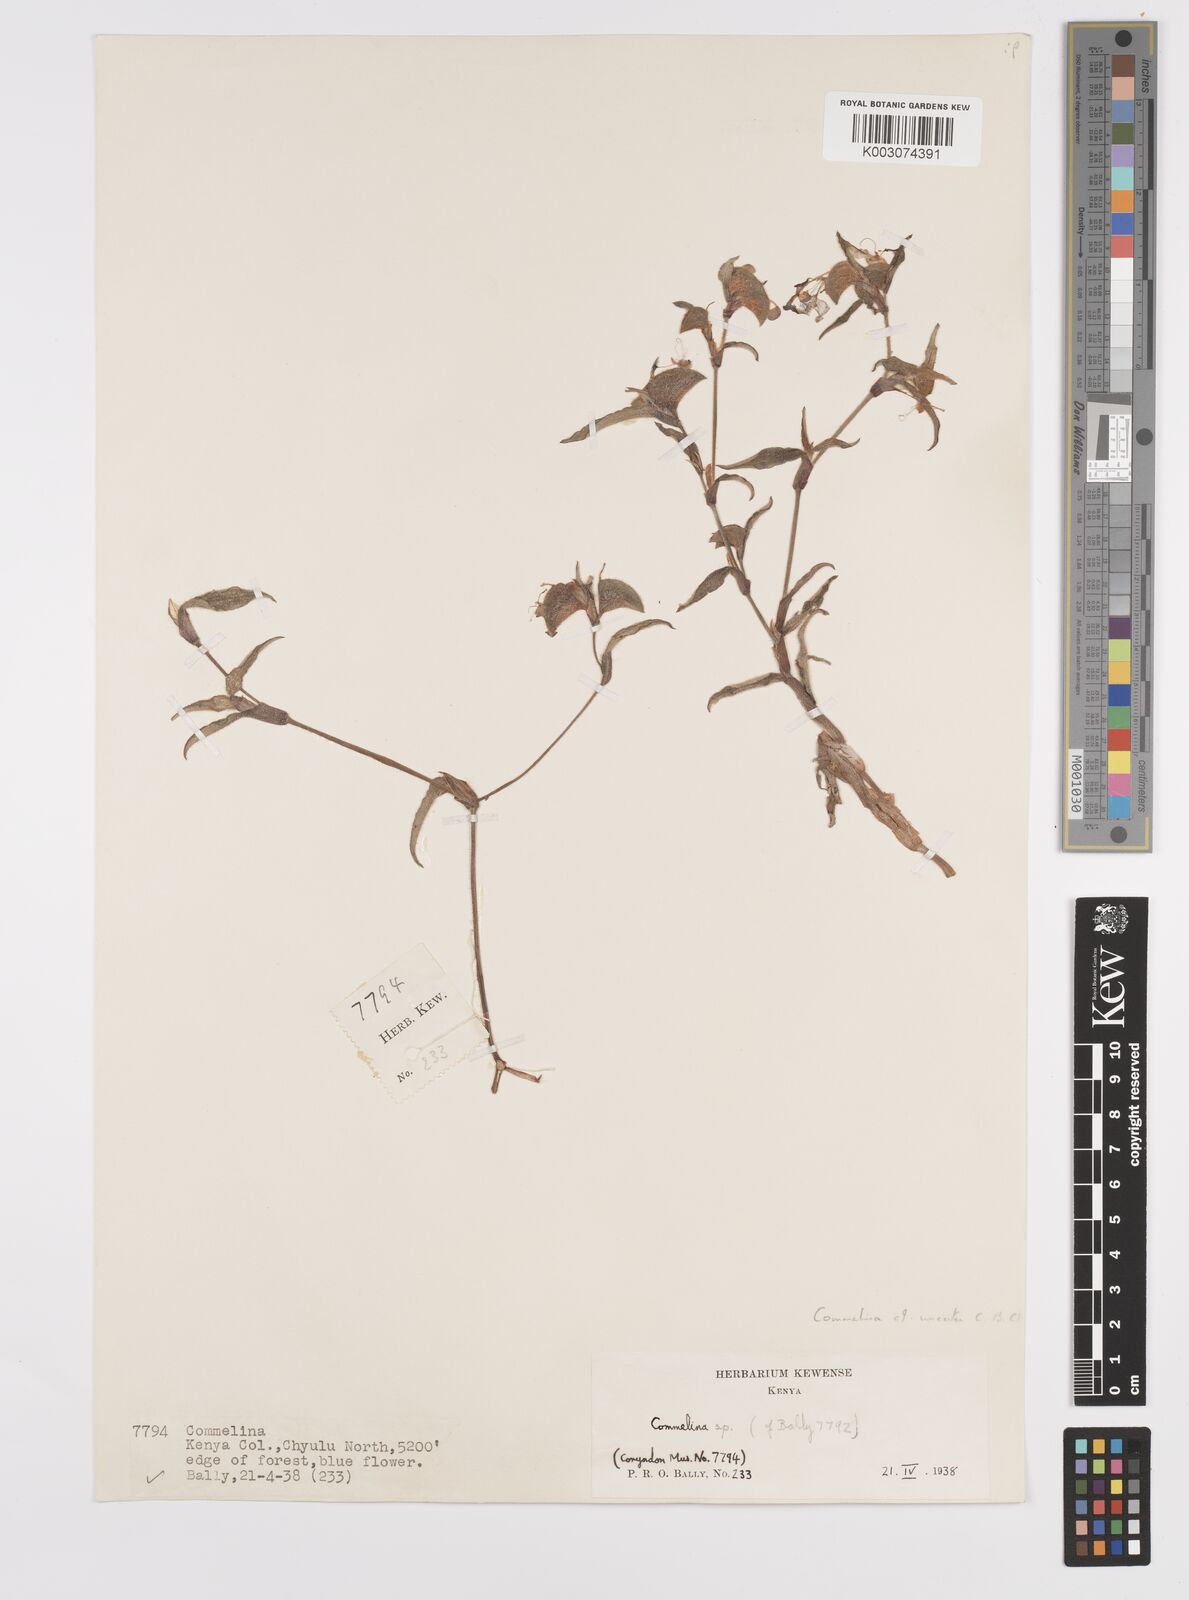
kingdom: Plantae
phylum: Tracheophyta
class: Liliopsida
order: Commelinales
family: Commelinaceae
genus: Commelina
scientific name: Commelina benghalensis
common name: Jio
